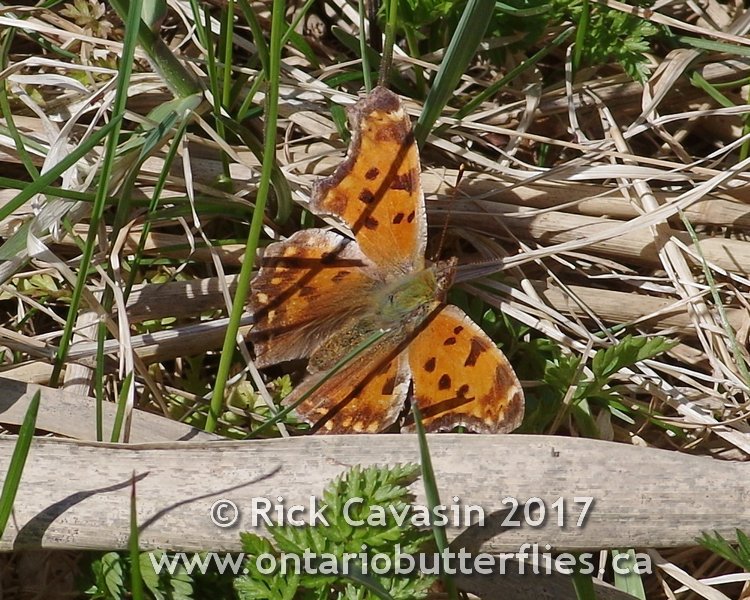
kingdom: Animalia
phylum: Arthropoda
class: Insecta
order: Lepidoptera
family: Nymphalidae
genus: Polygonia
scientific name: Polygonia comma
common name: Eastern Comma
